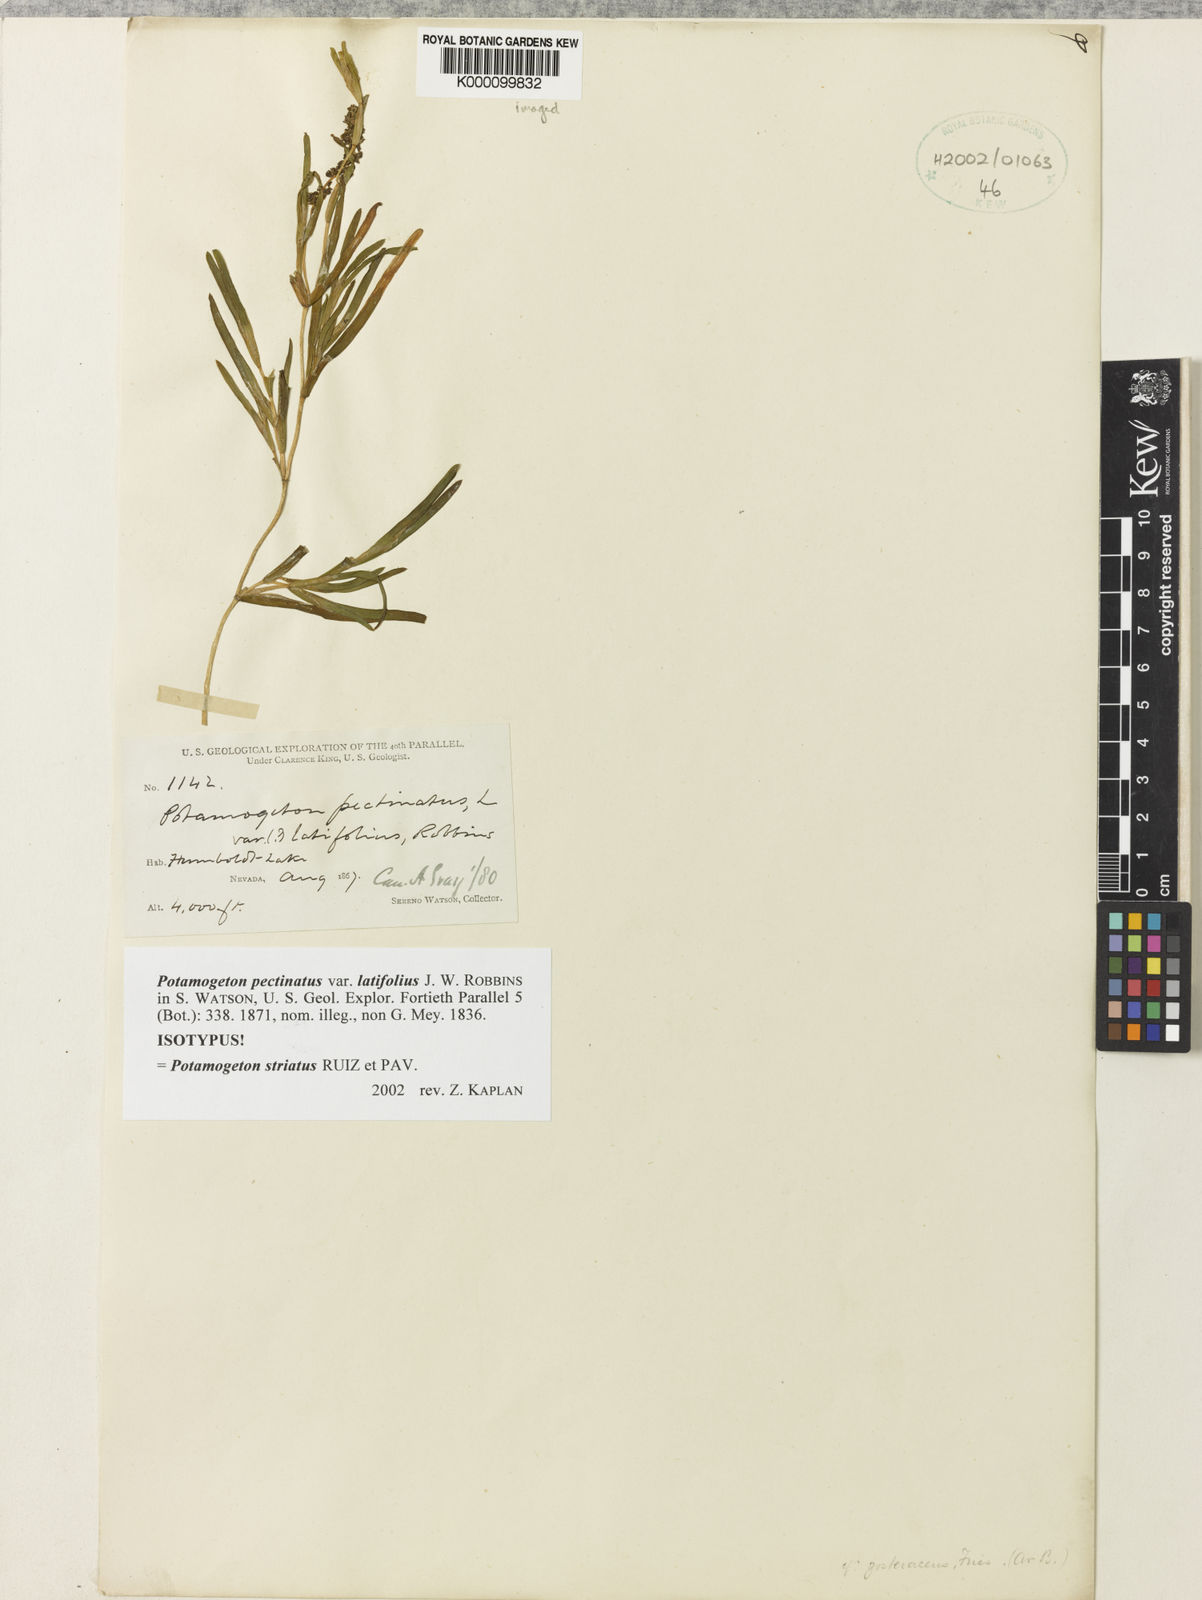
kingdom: Plantae
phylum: Tracheophyta
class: Liliopsida
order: Alismatales
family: Potamogetonaceae
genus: Potamogeton
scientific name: Potamogeton
